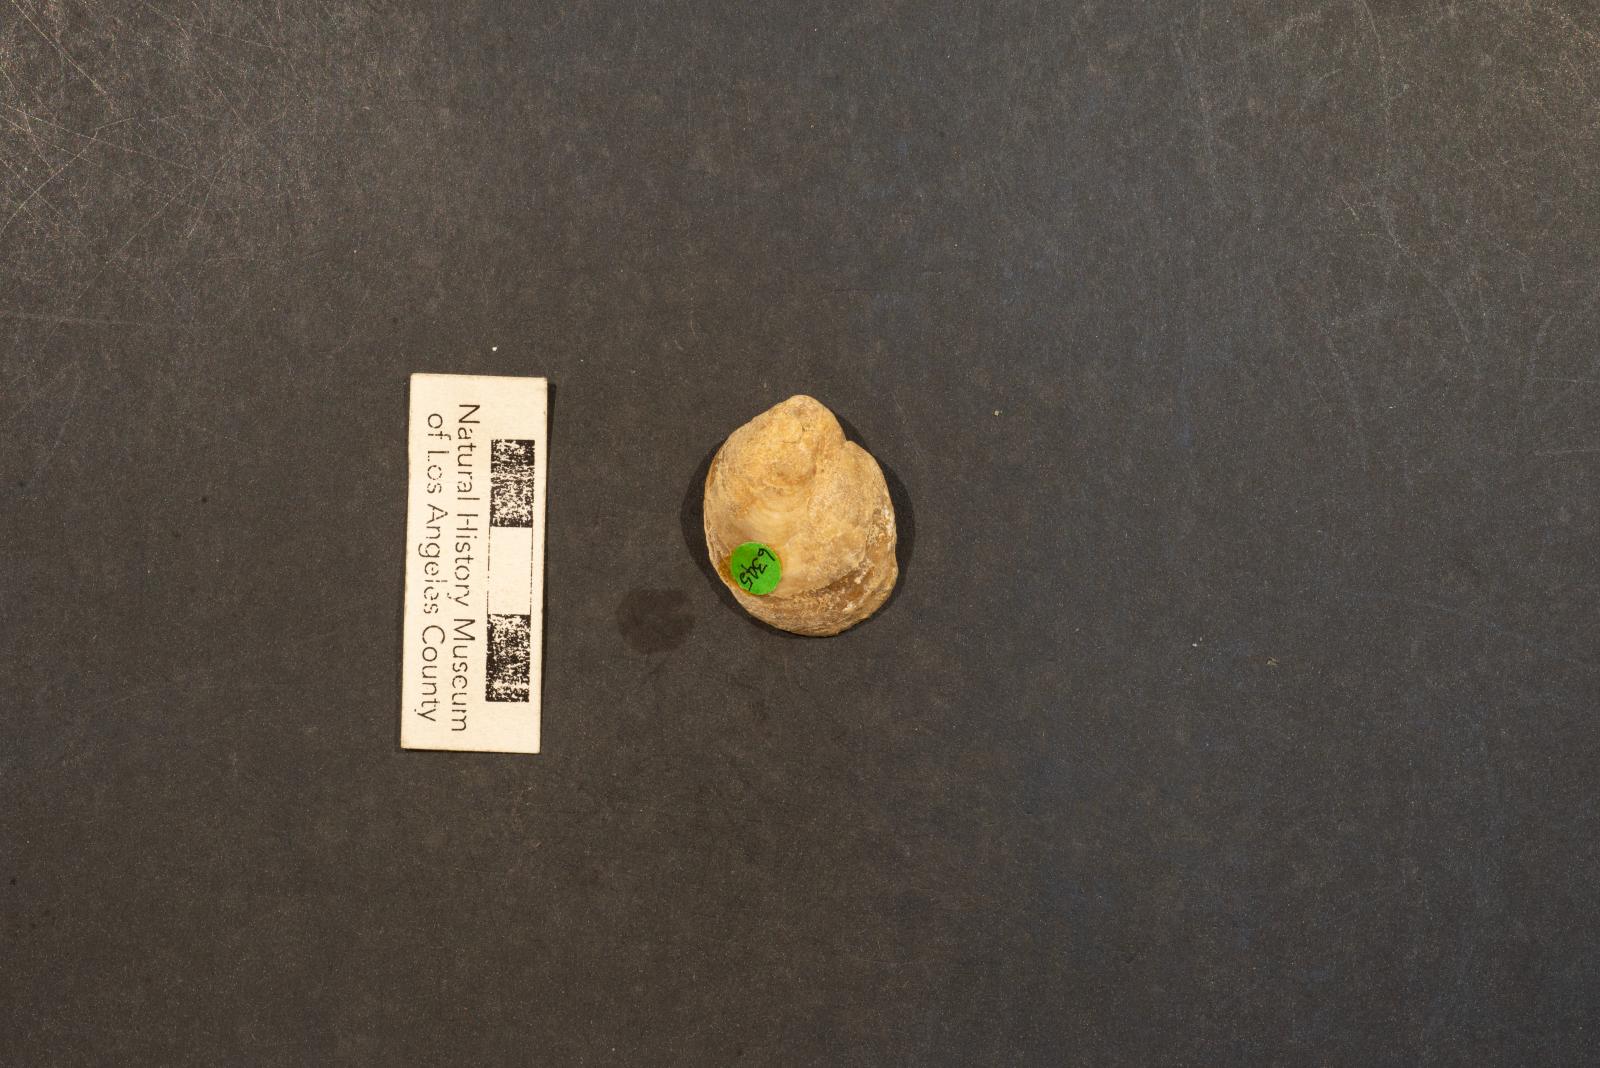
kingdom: Animalia
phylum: Mollusca
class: Bivalvia
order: Pectinida
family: Anomiidae
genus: Anomia
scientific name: Anomia jalama
